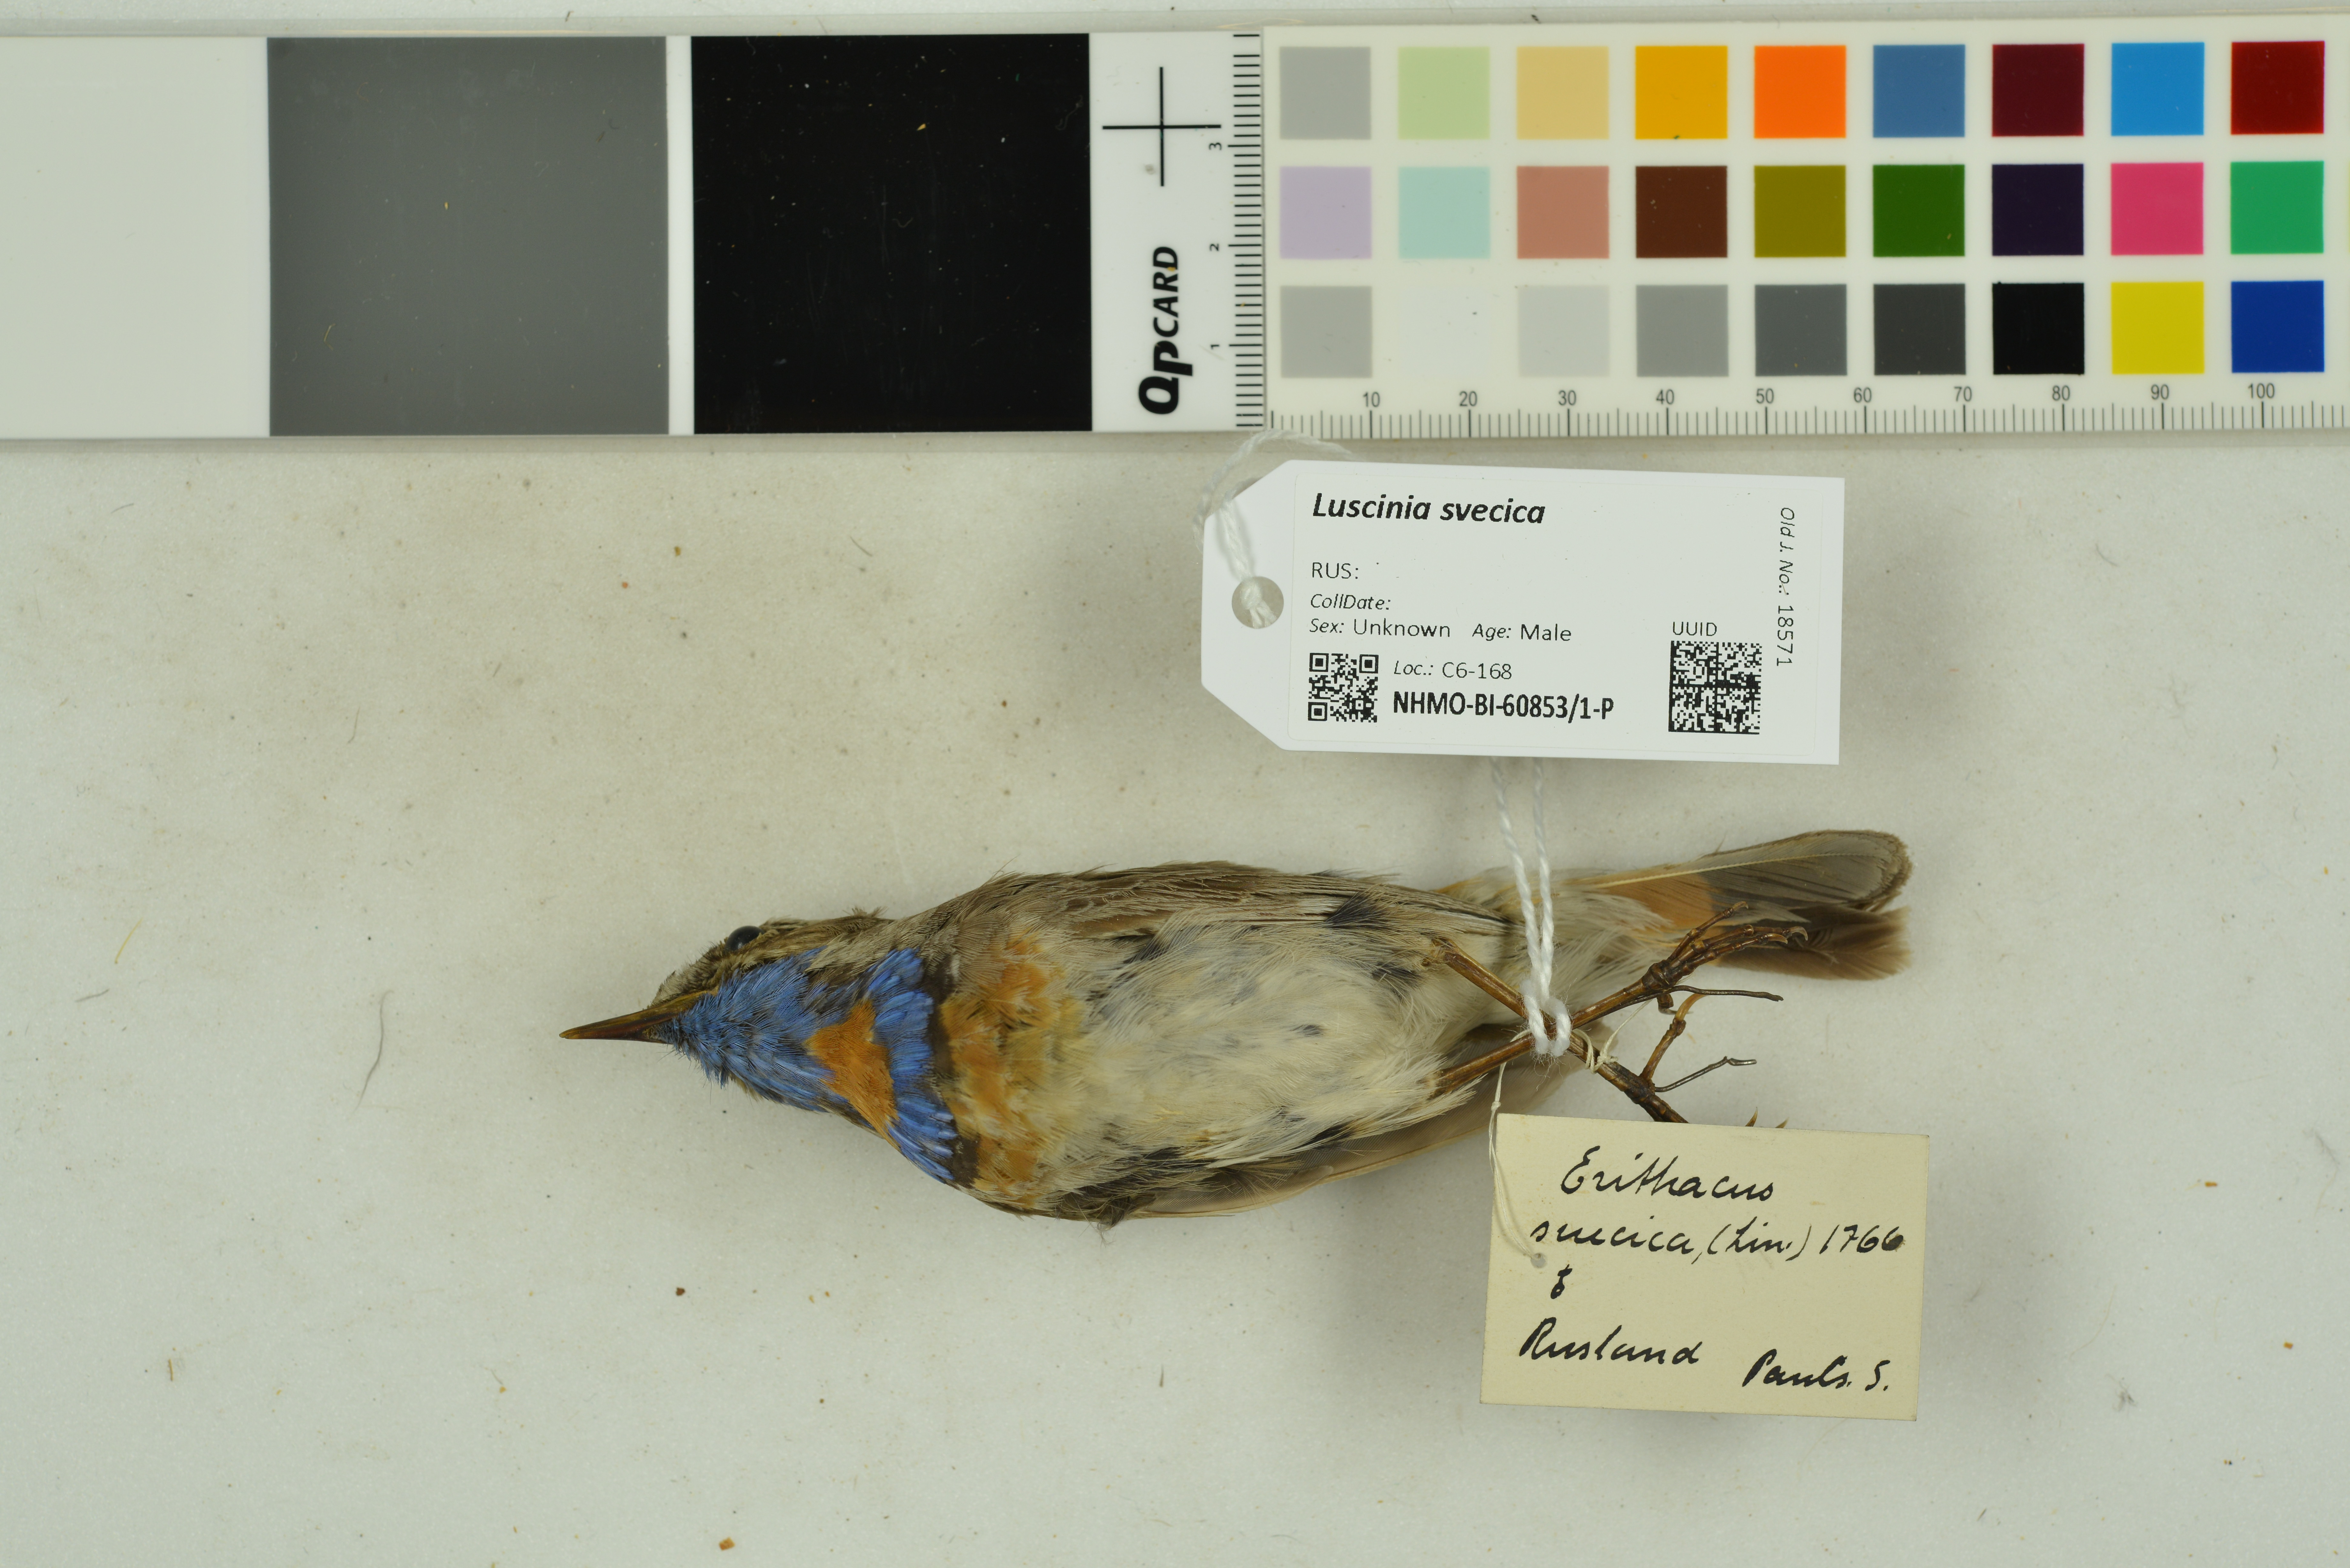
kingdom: Animalia
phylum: Chordata
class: Aves
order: Passeriformes
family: Muscicapidae
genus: Luscinia
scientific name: Luscinia svecica
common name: Bluethroat
